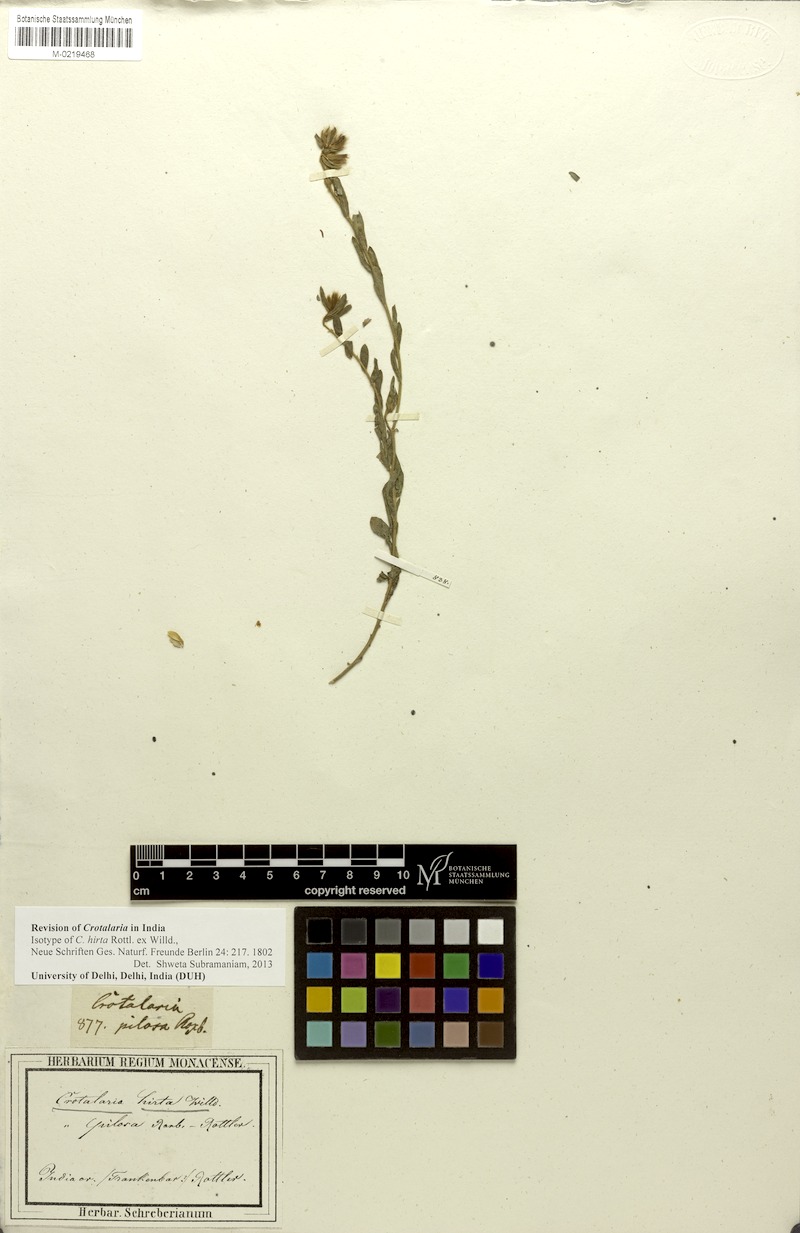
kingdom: Plantae
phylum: Tracheophyta
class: Magnoliopsida
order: Fabales
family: Fabaceae
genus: Crotalaria
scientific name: Crotalaria hirta
